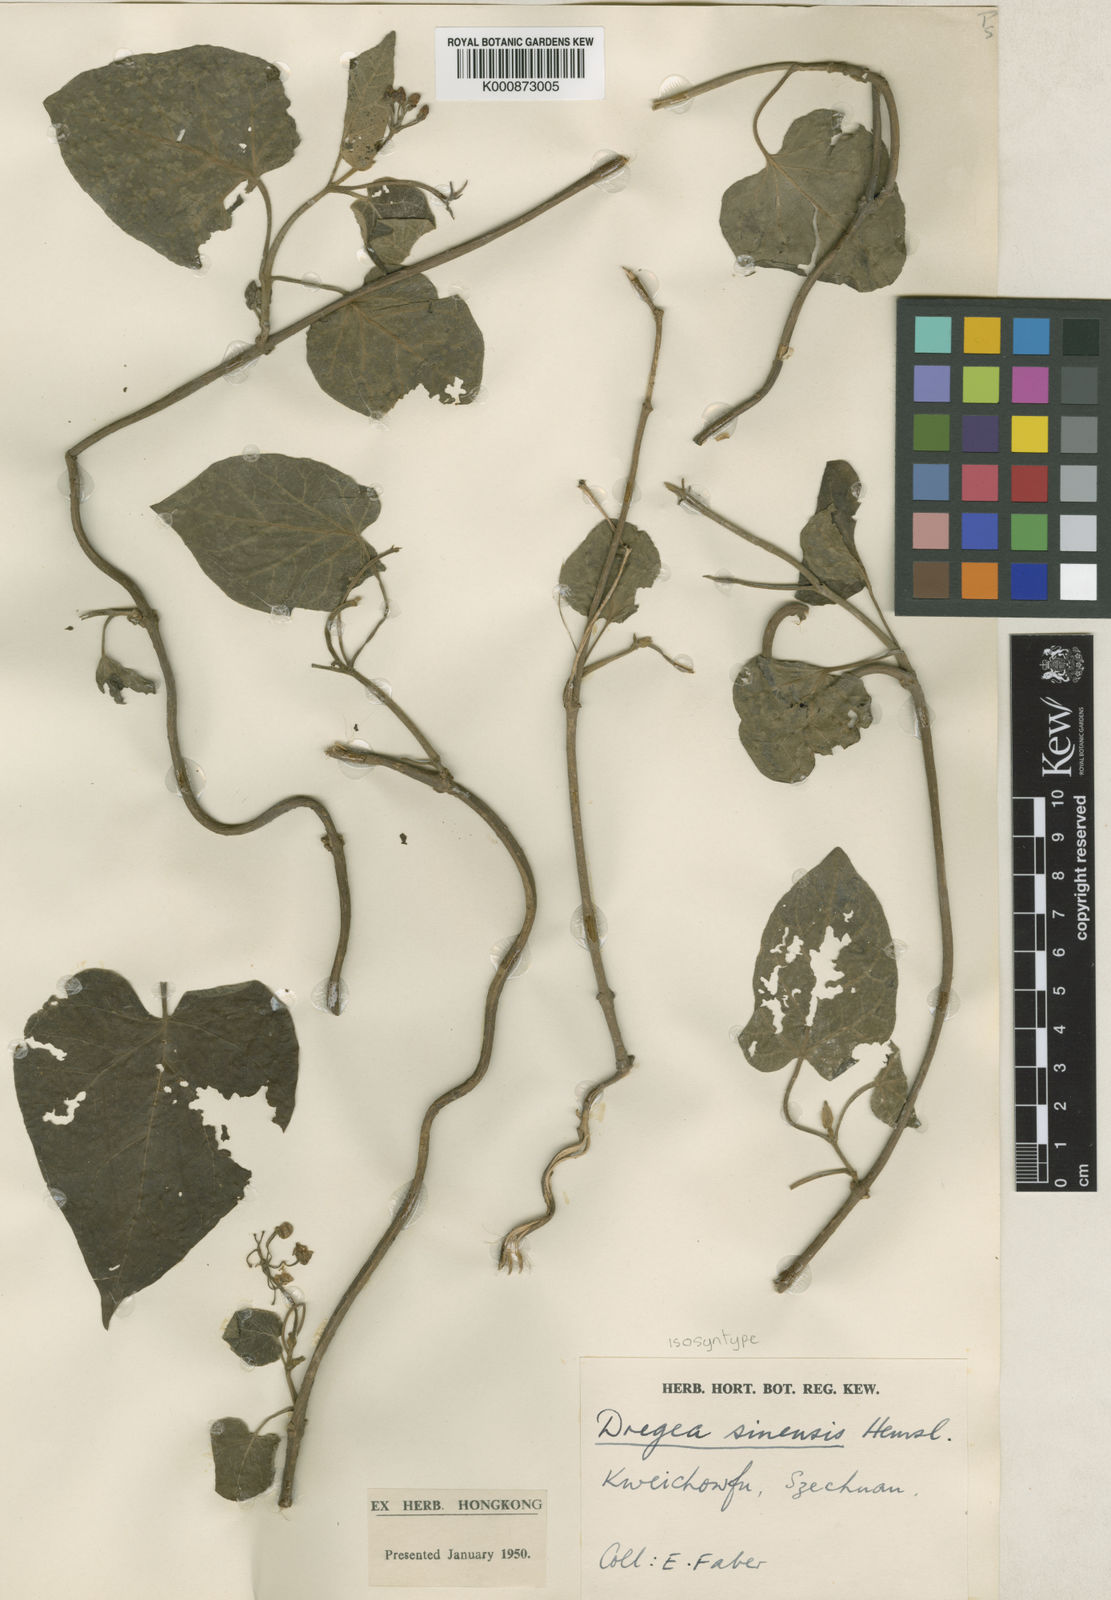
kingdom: Plantae
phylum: Tracheophyta
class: Magnoliopsida
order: Gentianales
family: Apocynaceae
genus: Stephanotis
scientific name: Stephanotis sinensis
